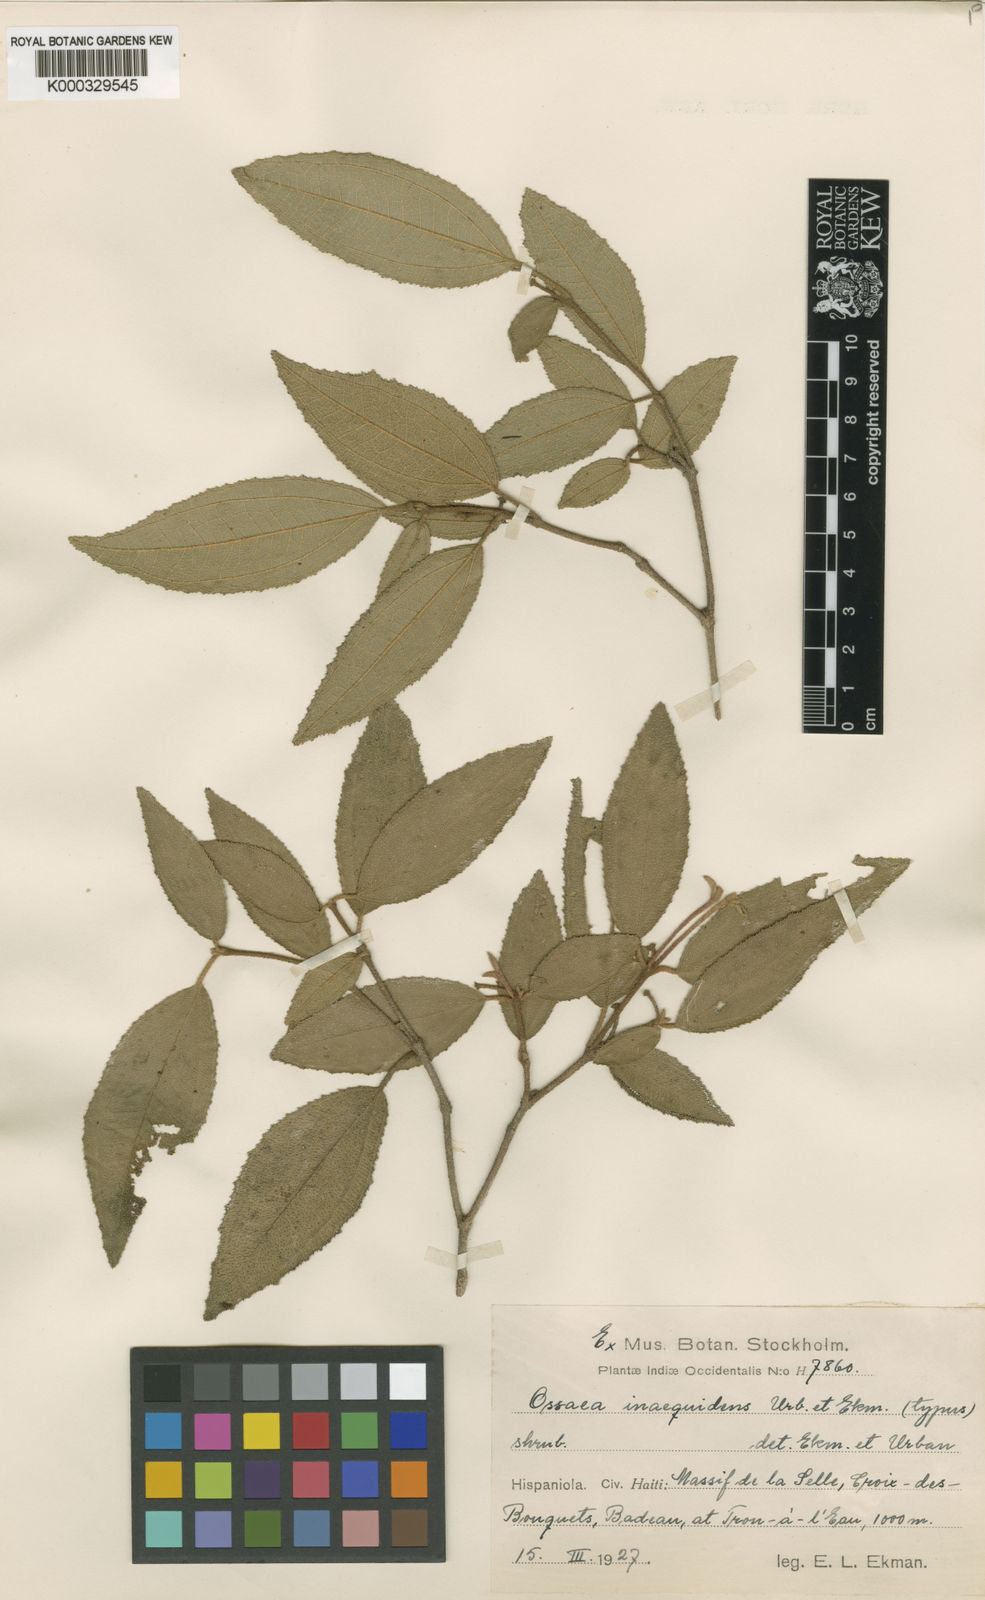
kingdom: Plantae
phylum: Tracheophyta
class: Magnoliopsida
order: Myrtales
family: Melastomataceae
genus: Miconia
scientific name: Miconia inaequipetiolata
